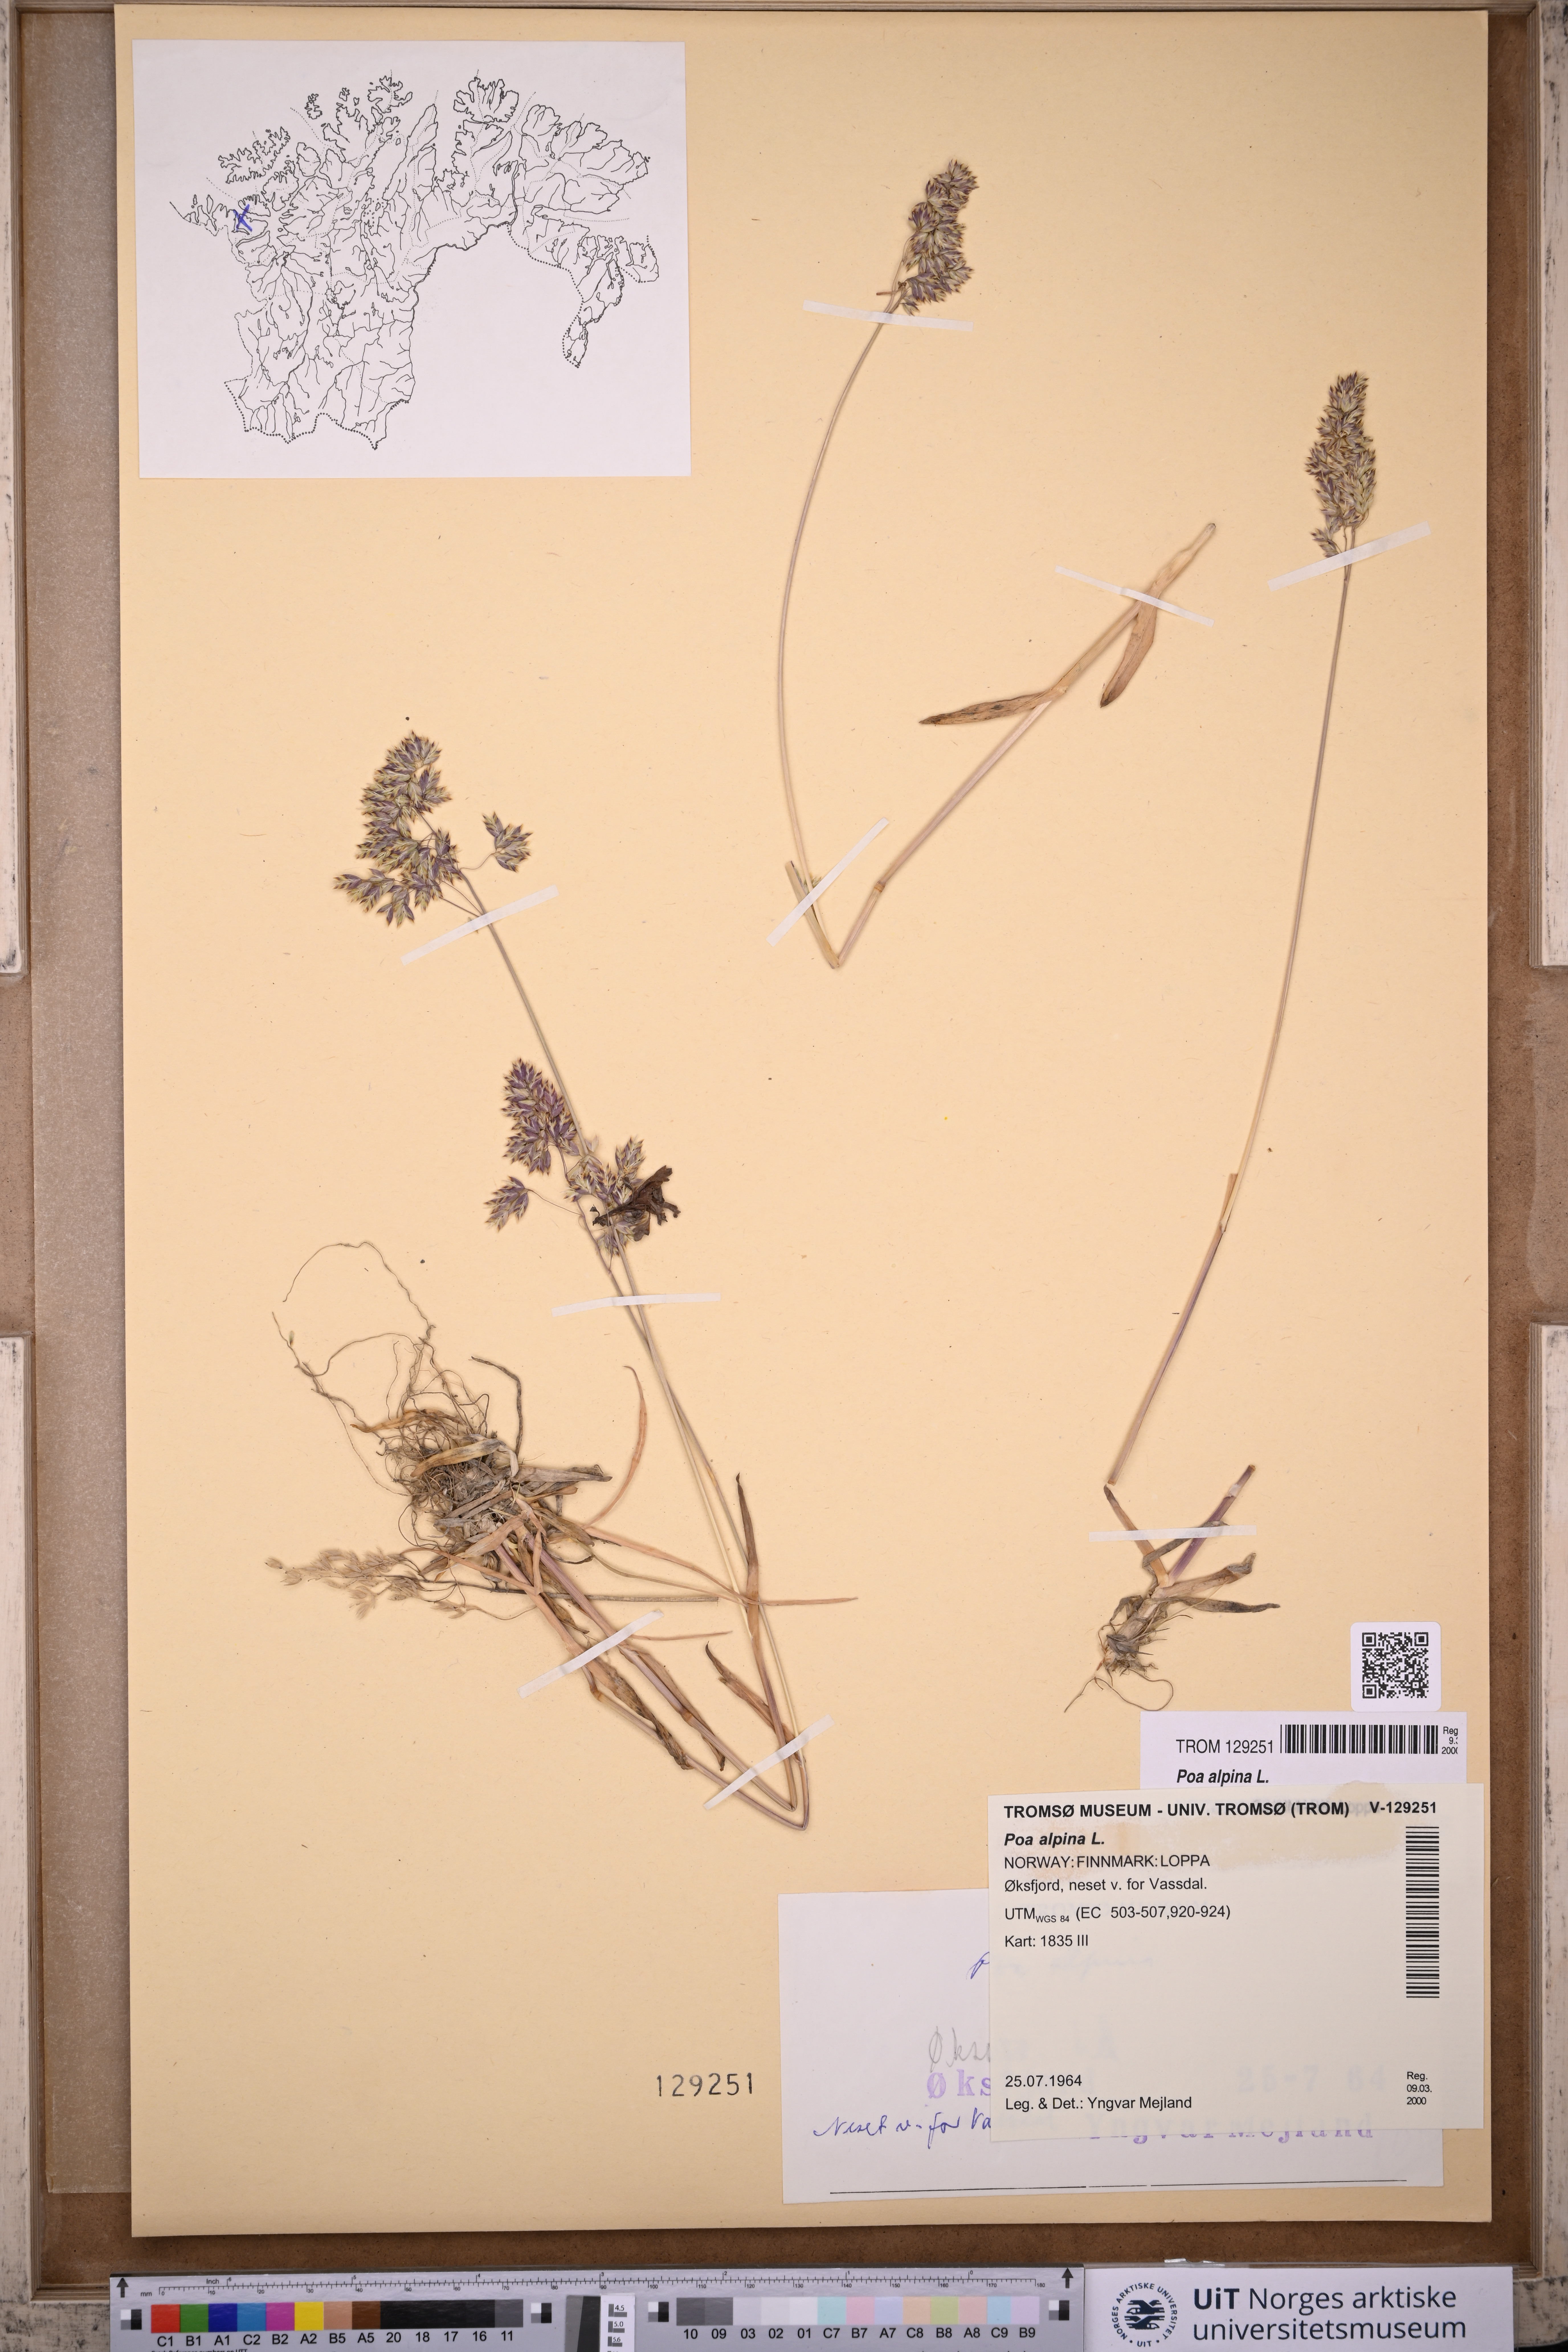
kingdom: Plantae
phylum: Tracheophyta
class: Liliopsida
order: Poales
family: Poaceae
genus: Poa
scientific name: Poa alpina
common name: Alpine bluegrass
